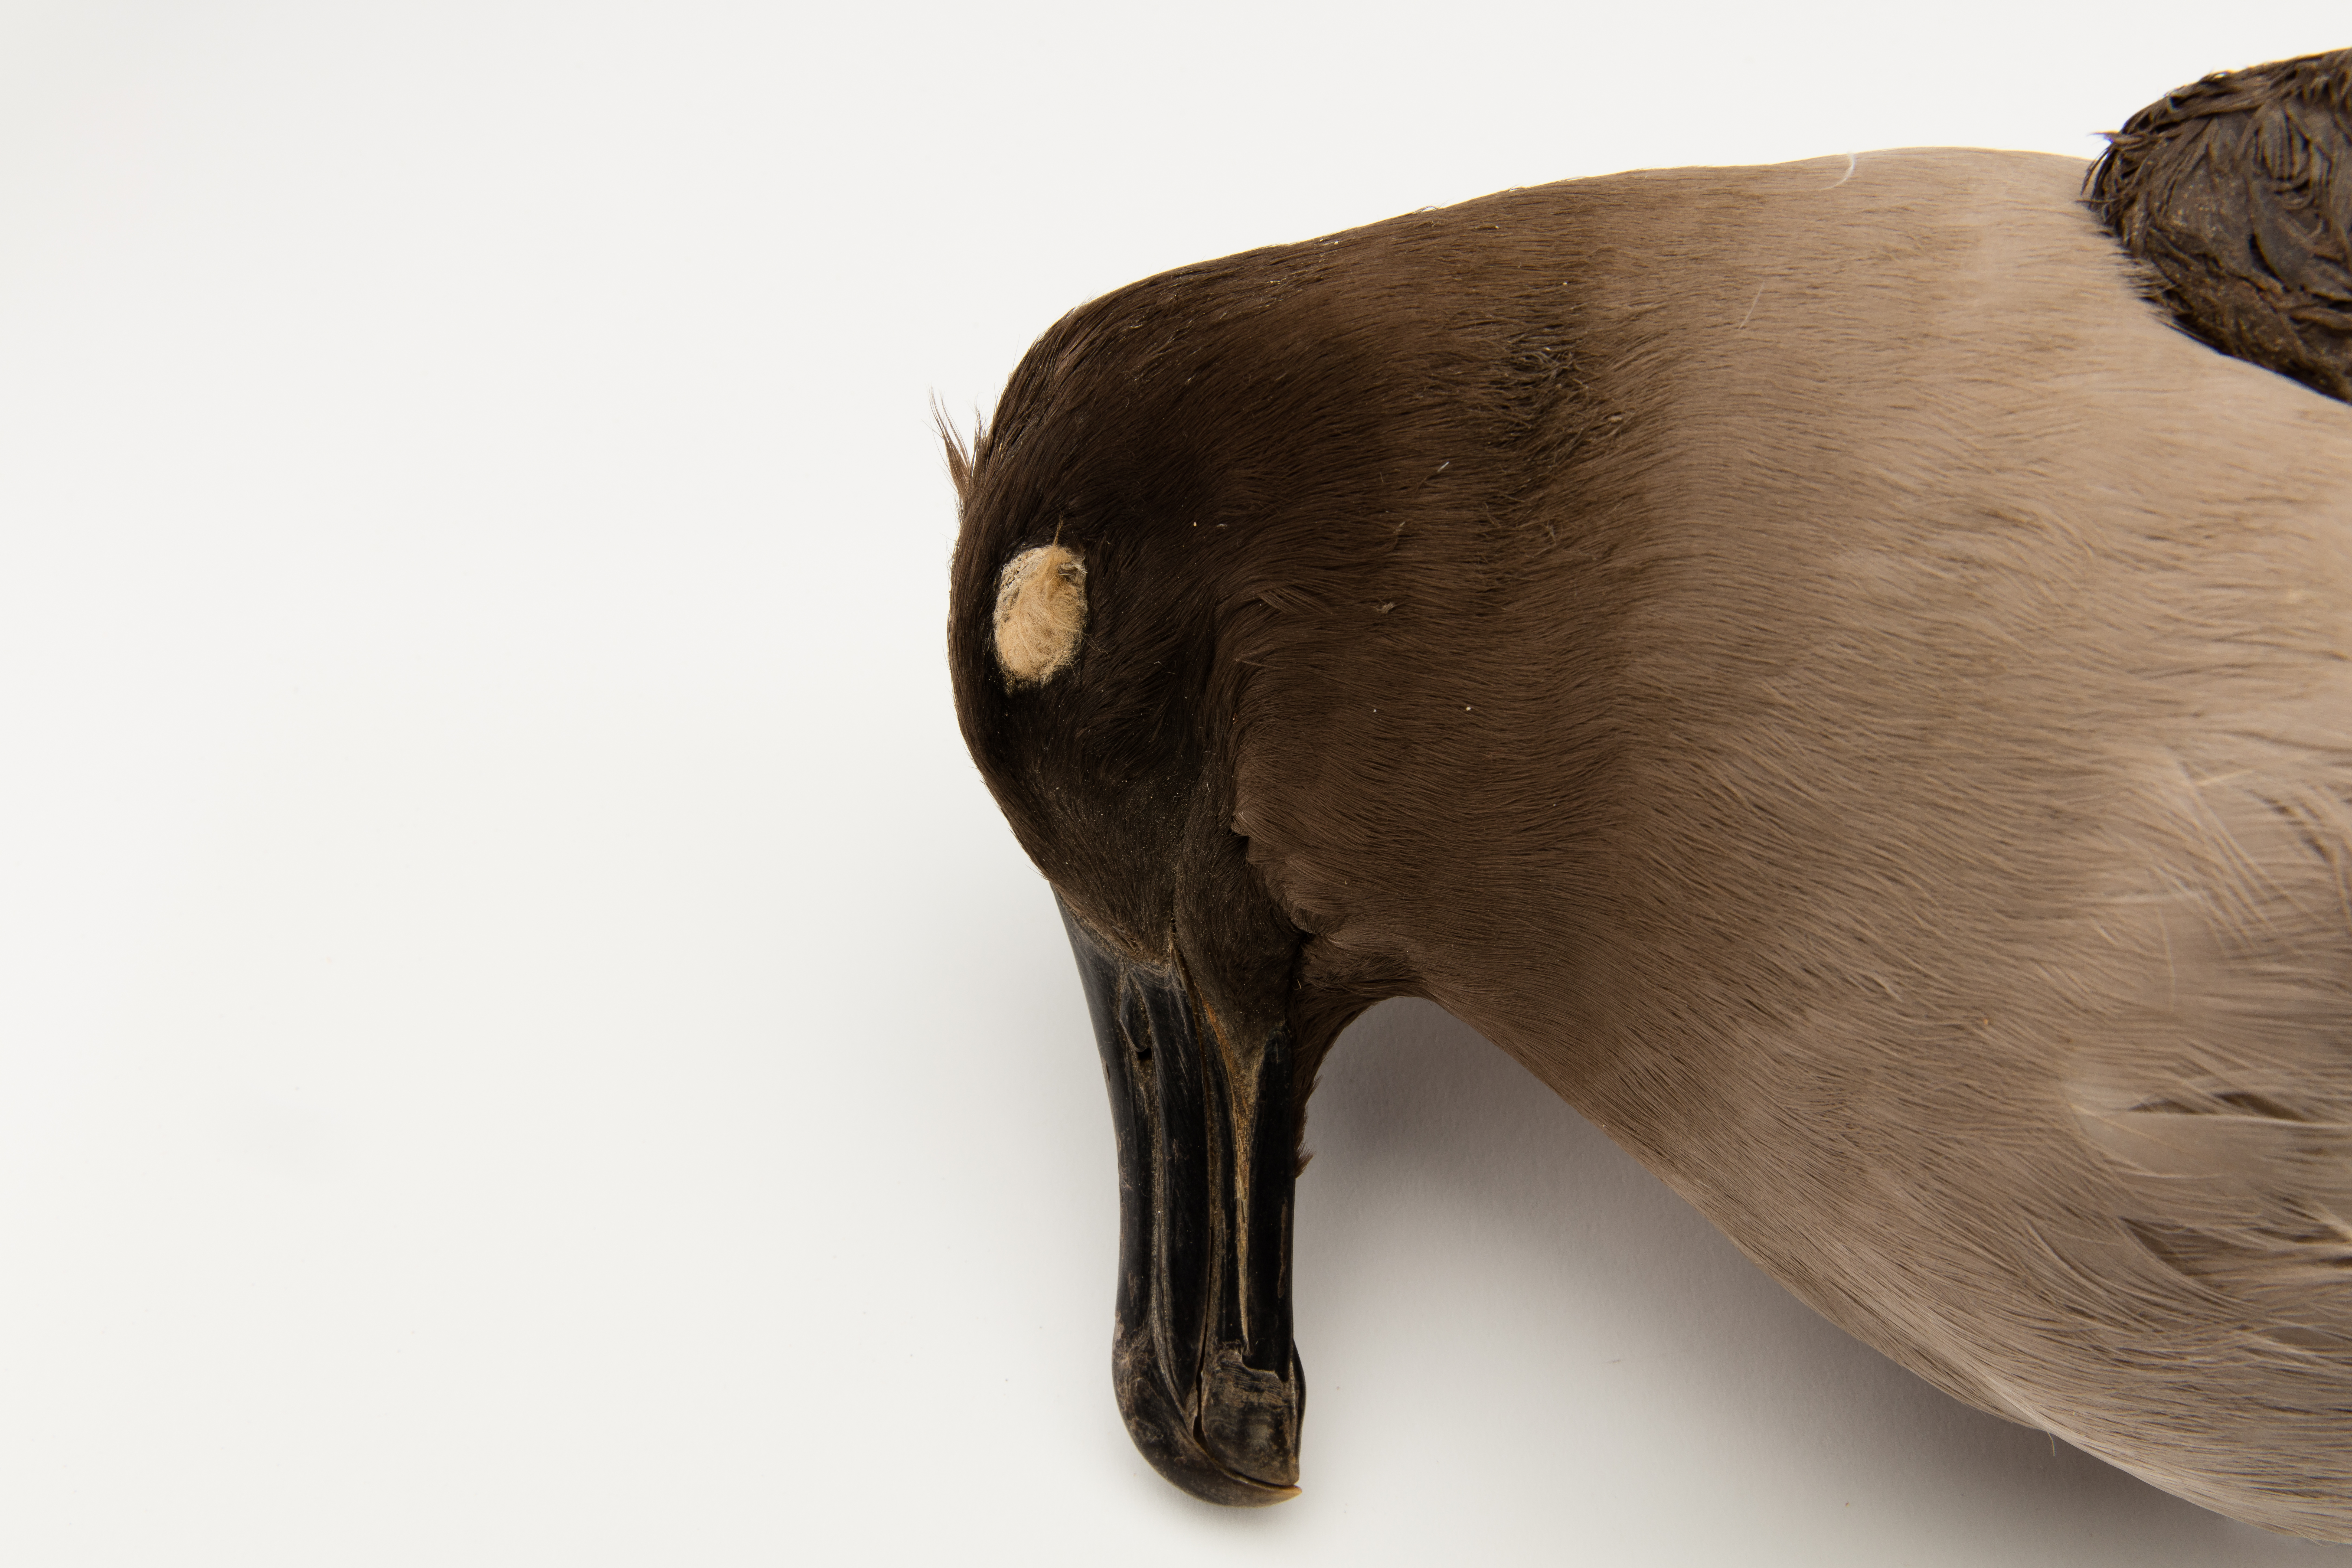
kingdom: Animalia
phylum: Chordata
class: Aves
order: Procellariiformes
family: Diomedeidae
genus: Phoebetria
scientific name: Phoebetria palpebrata
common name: Light-mantled albatross
